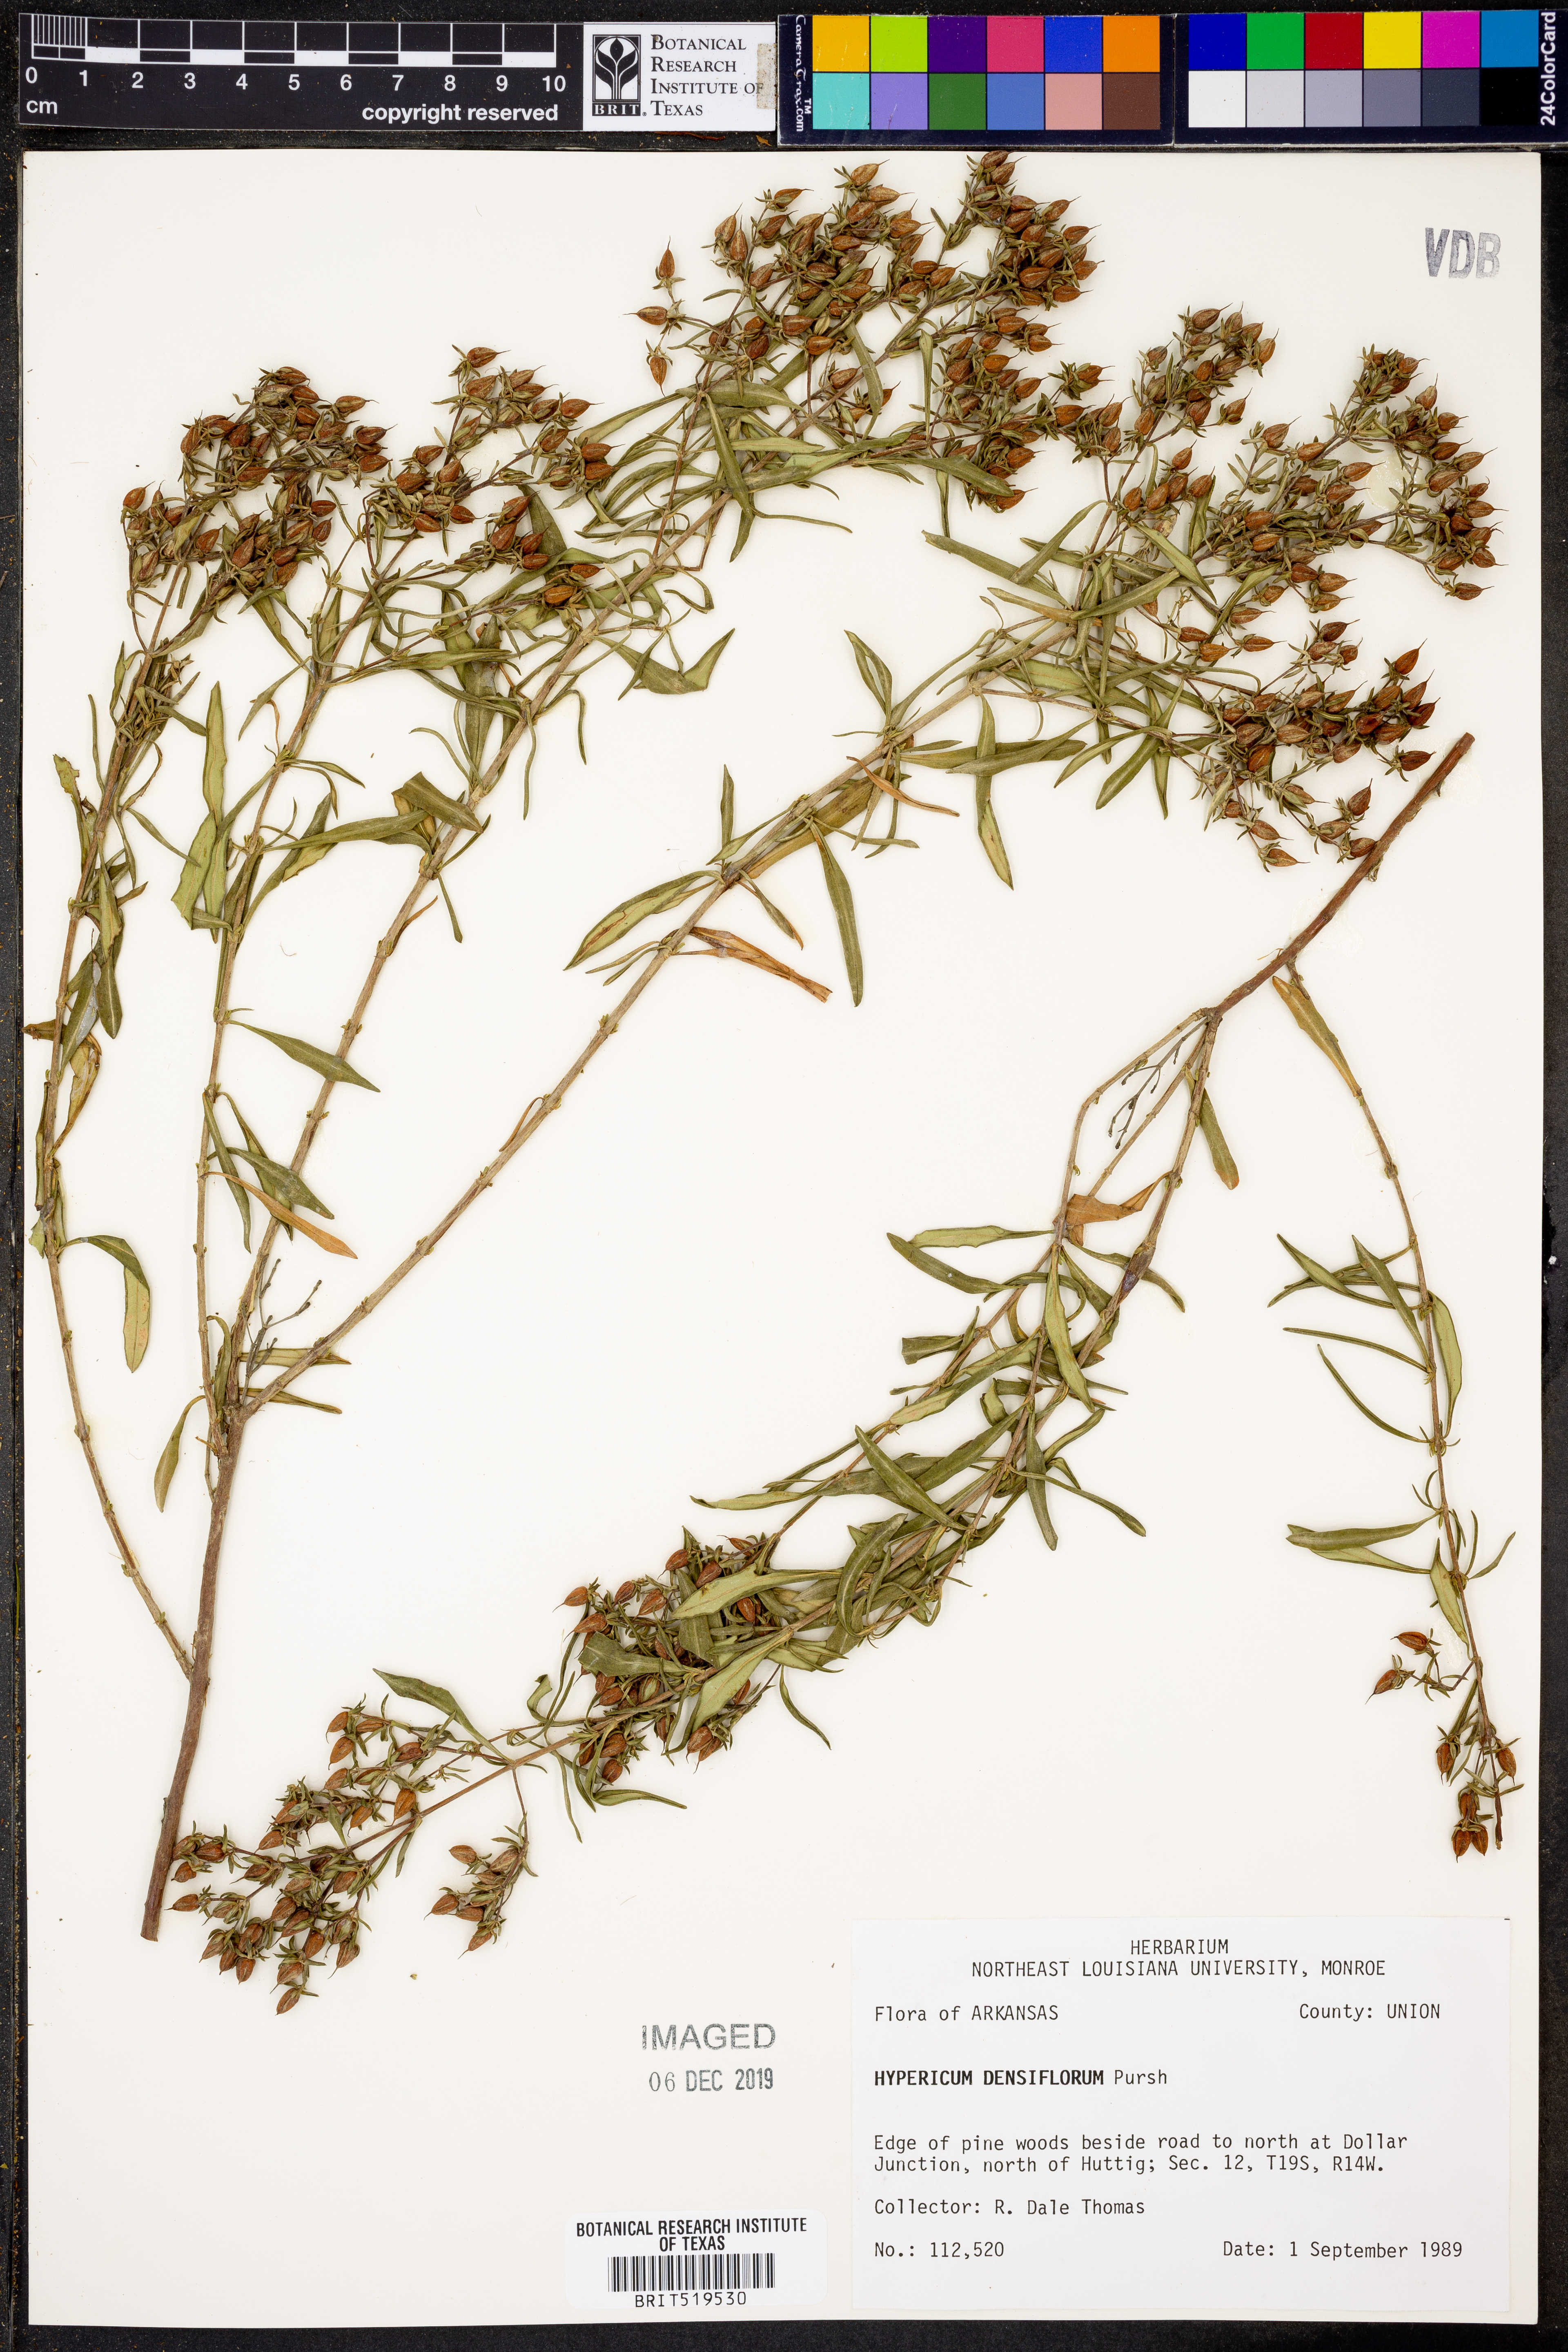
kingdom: Plantae
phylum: Tracheophyta
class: Magnoliopsida
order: Malpighiales
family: Hypericaceae
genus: Hypericum
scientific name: Hypericum densiflorum
